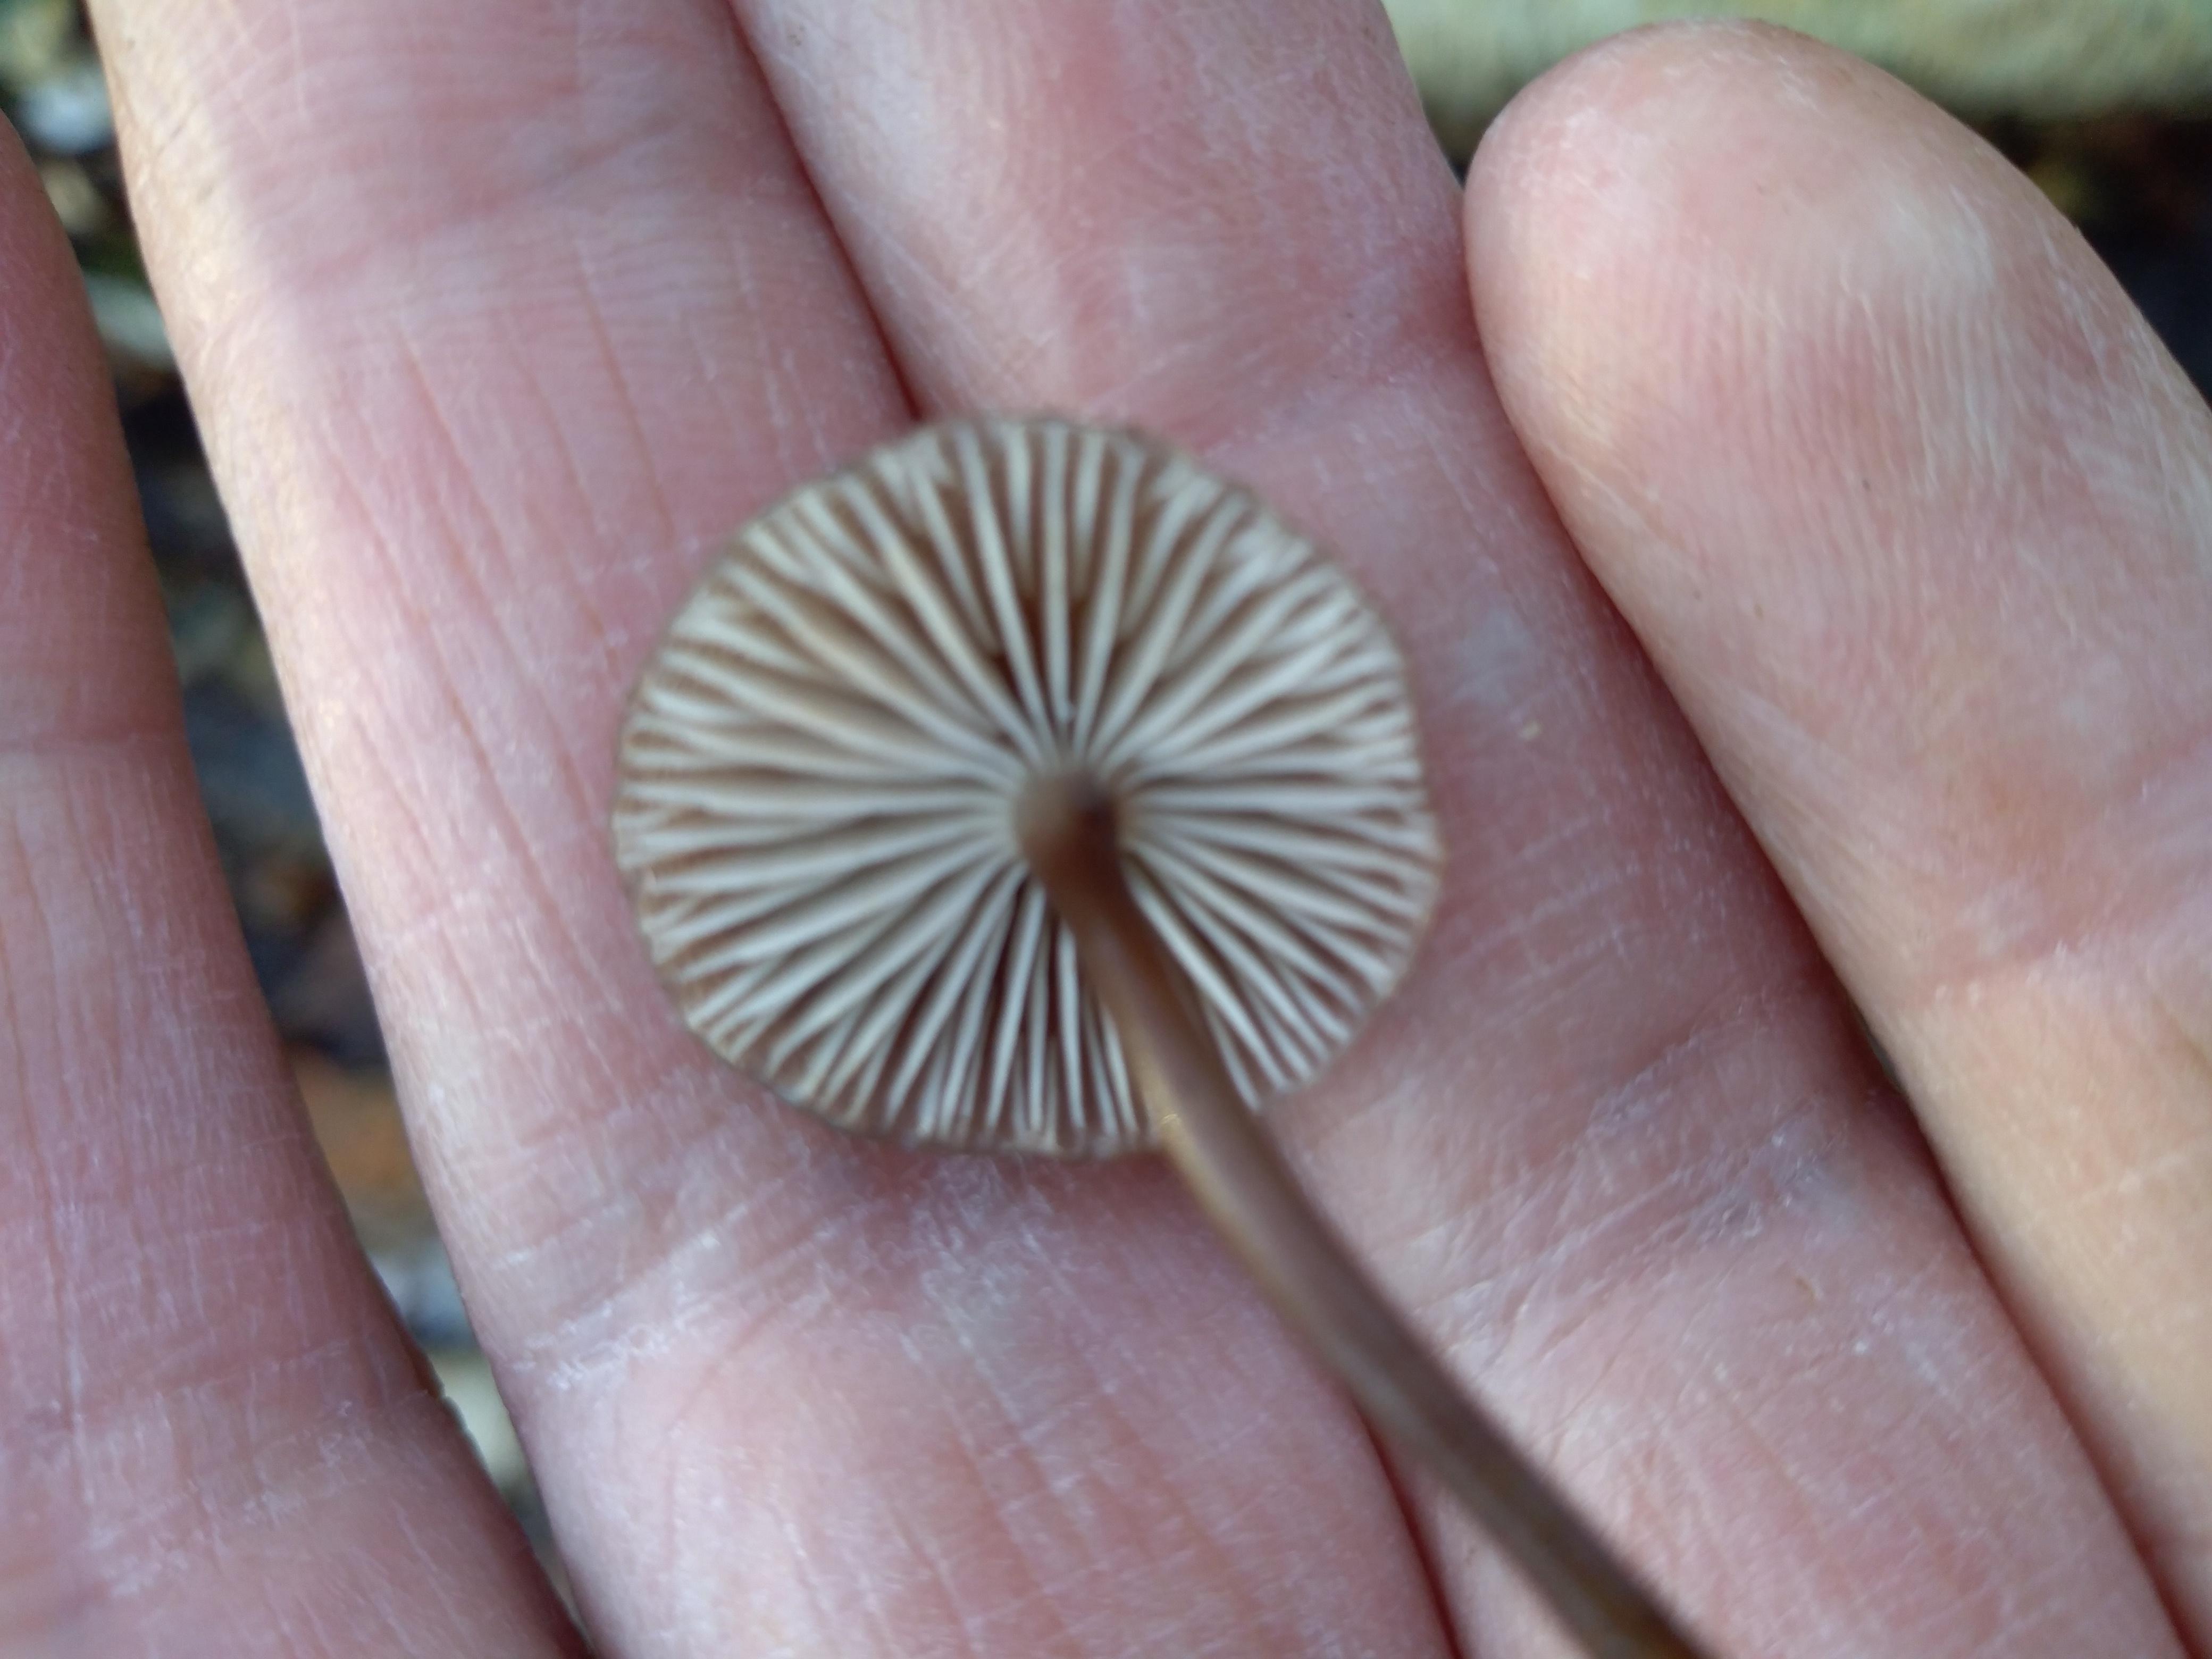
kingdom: Fungi
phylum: Basidiomycota
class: Agaricomycetes
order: Agaricales
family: Mycenaceae
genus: Mycena
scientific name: Mycena tintinnabulum
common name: vinter-huesvamp
